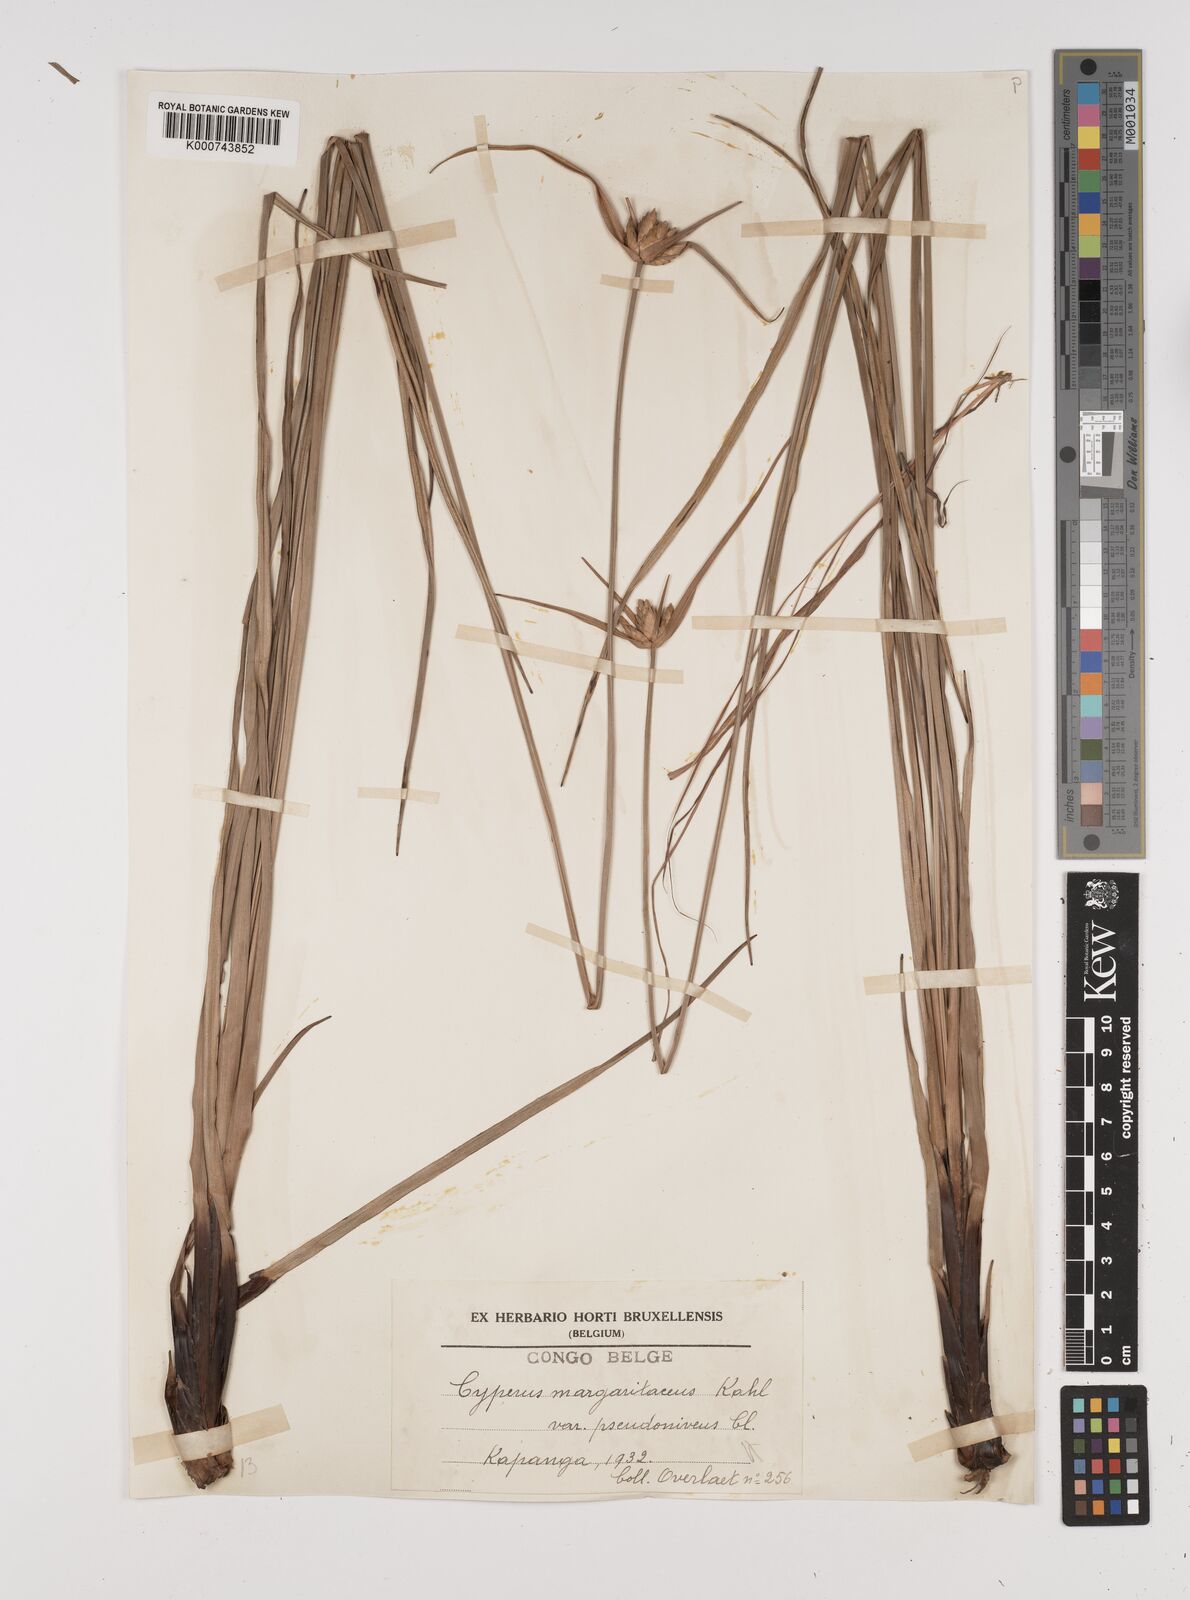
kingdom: Plantae
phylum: Tracheophyta
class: Liliopsida
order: Poales
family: Cyperaceae
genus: Cyperus
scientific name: Cyperus margaritaceus
